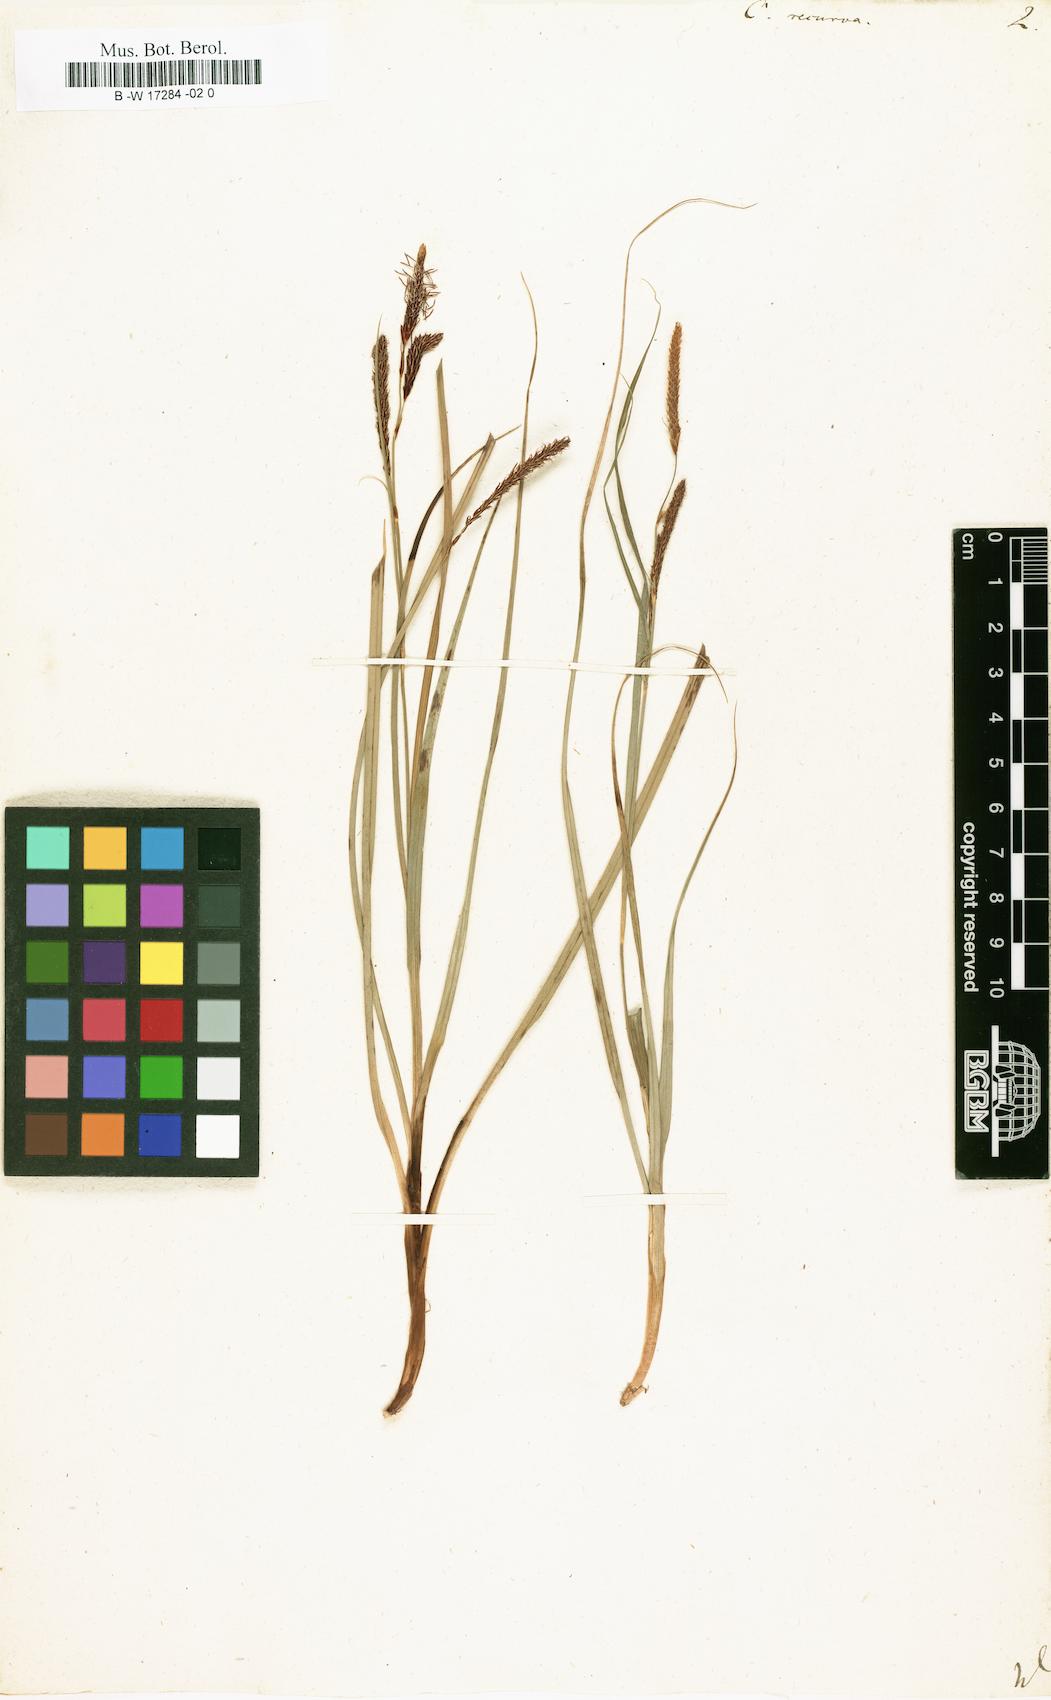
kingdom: Plantae
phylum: Tracheophyta
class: Liliopsida
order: Poales
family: Cyperaceae
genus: Carex
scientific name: Carex flacca
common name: Glaucous sedge
